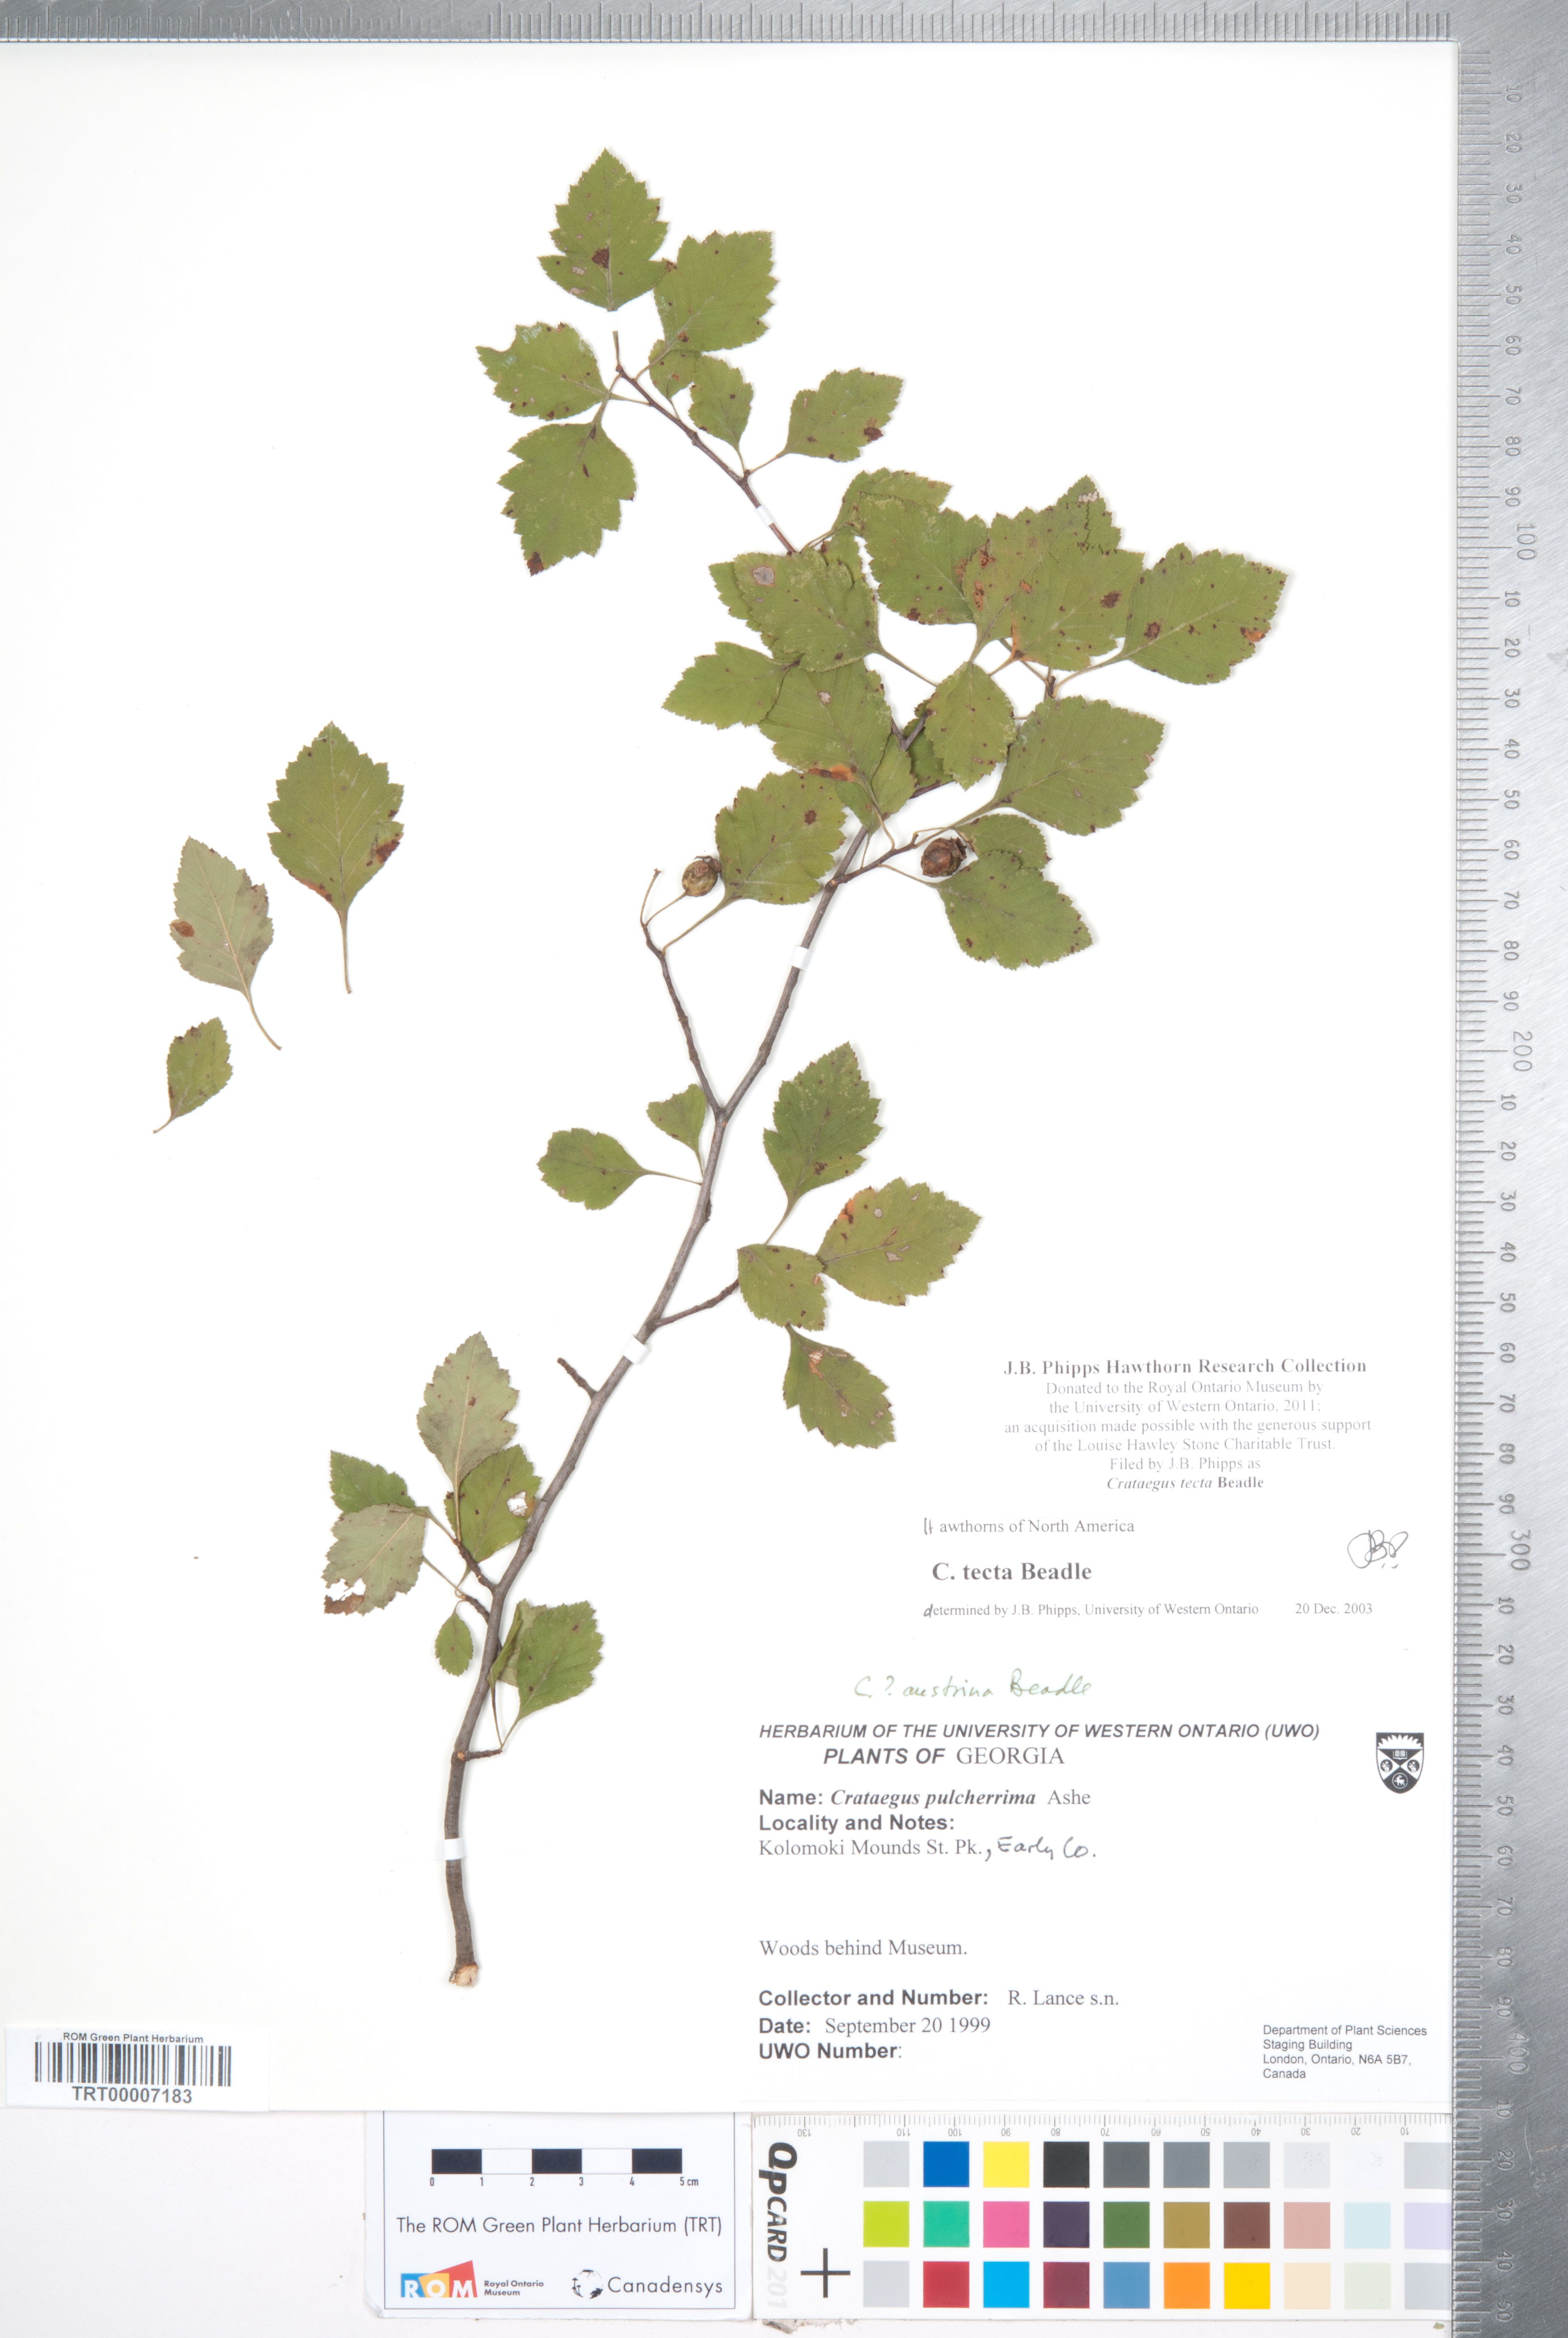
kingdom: Plantae
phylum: Tracheophyta
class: Magnoliopsida
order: Rosales
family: Rosaceae
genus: Crataegus
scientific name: Crataegus pulcherrima
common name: Beautiful hawthorn
